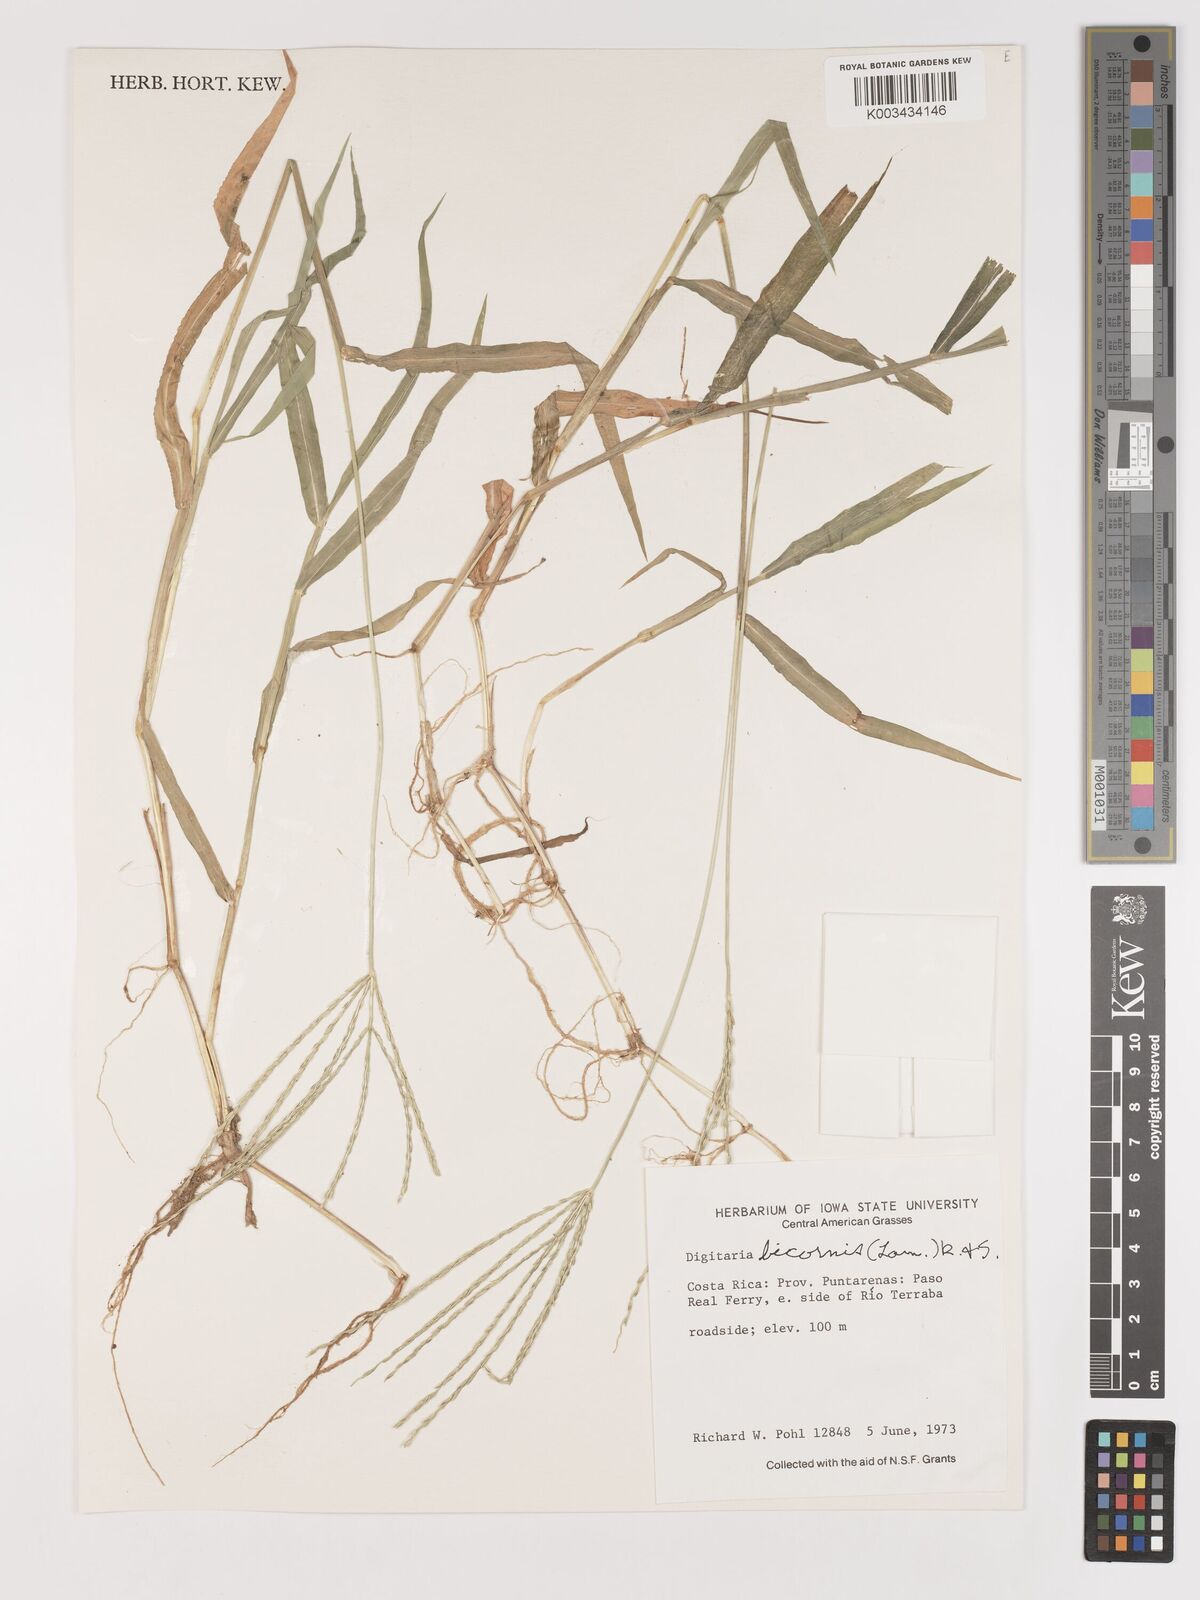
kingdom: Plantae
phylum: Tracheophyta
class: Liliopsida
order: Poales
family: Poaceae
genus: Digitaria
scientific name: Digitaria ciliaris
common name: Tropical finger-grass
